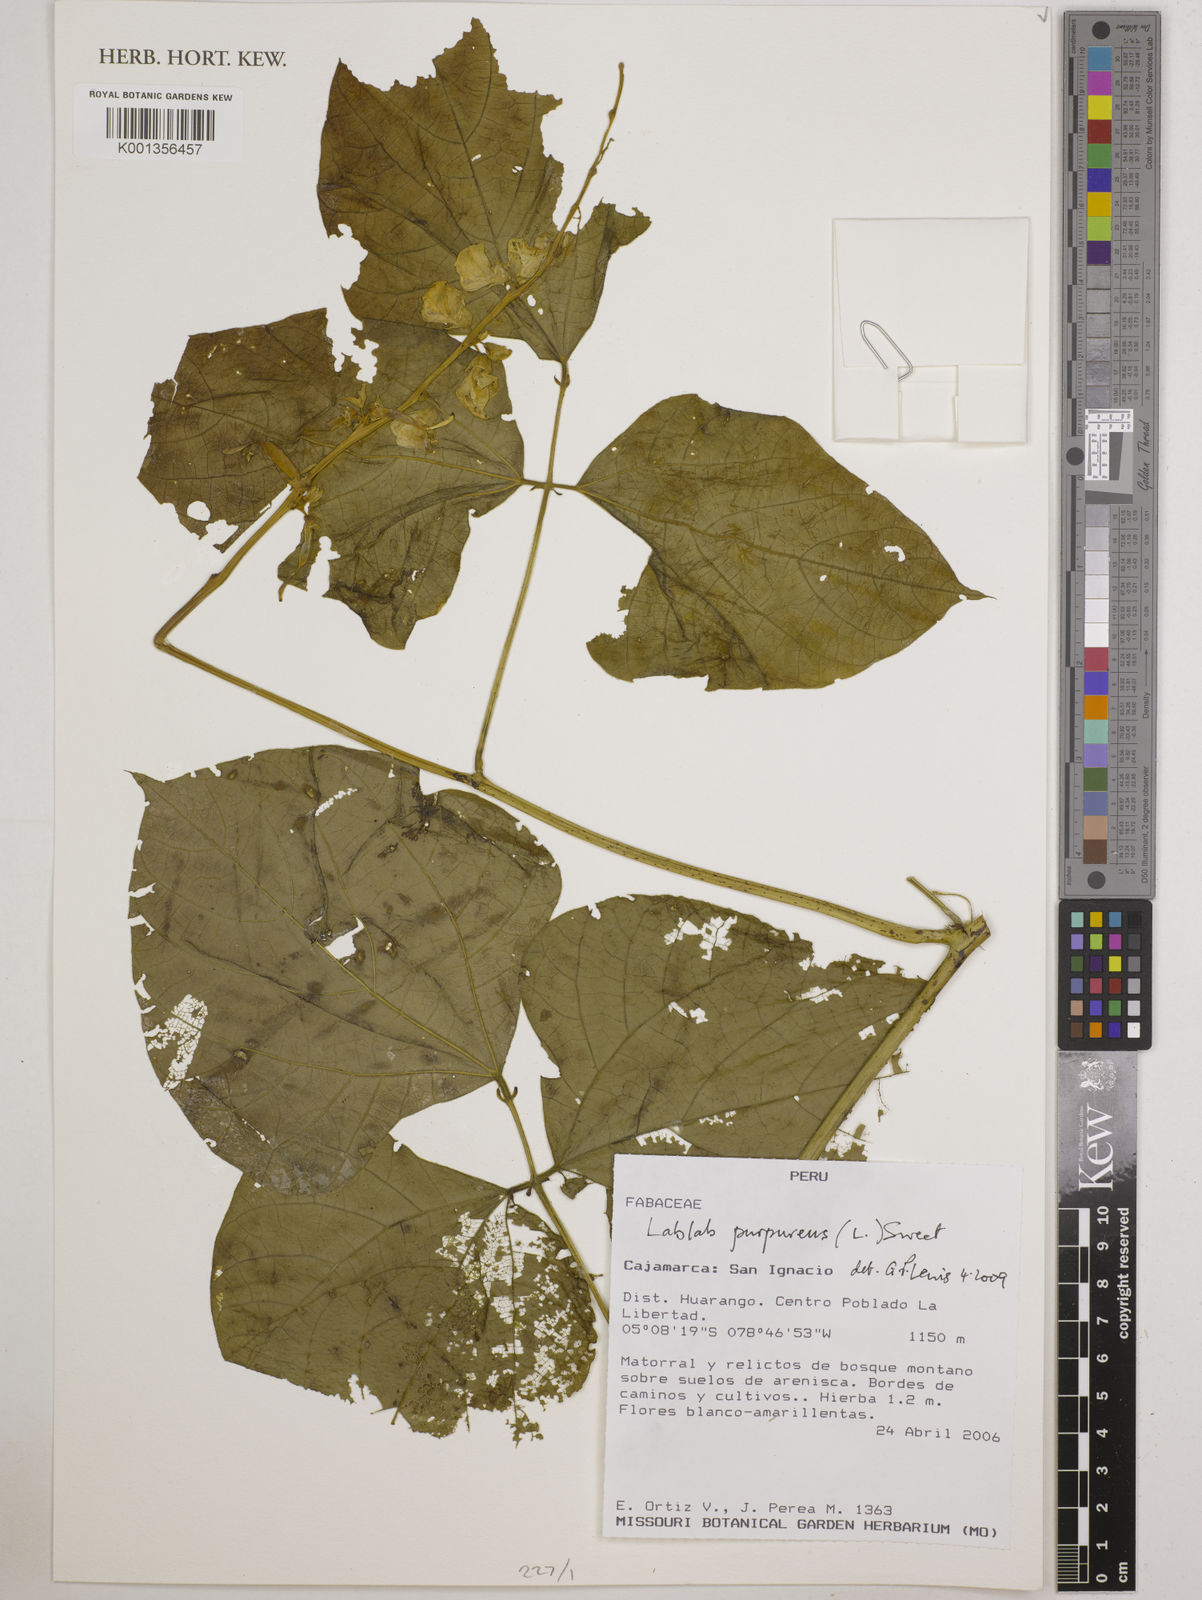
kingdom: Plantae
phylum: Tracheophyta
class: Magnoliopsida
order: Fabales
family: Fabaceae
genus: Lablab
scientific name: Lablab purpureus
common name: Lablab-bean
